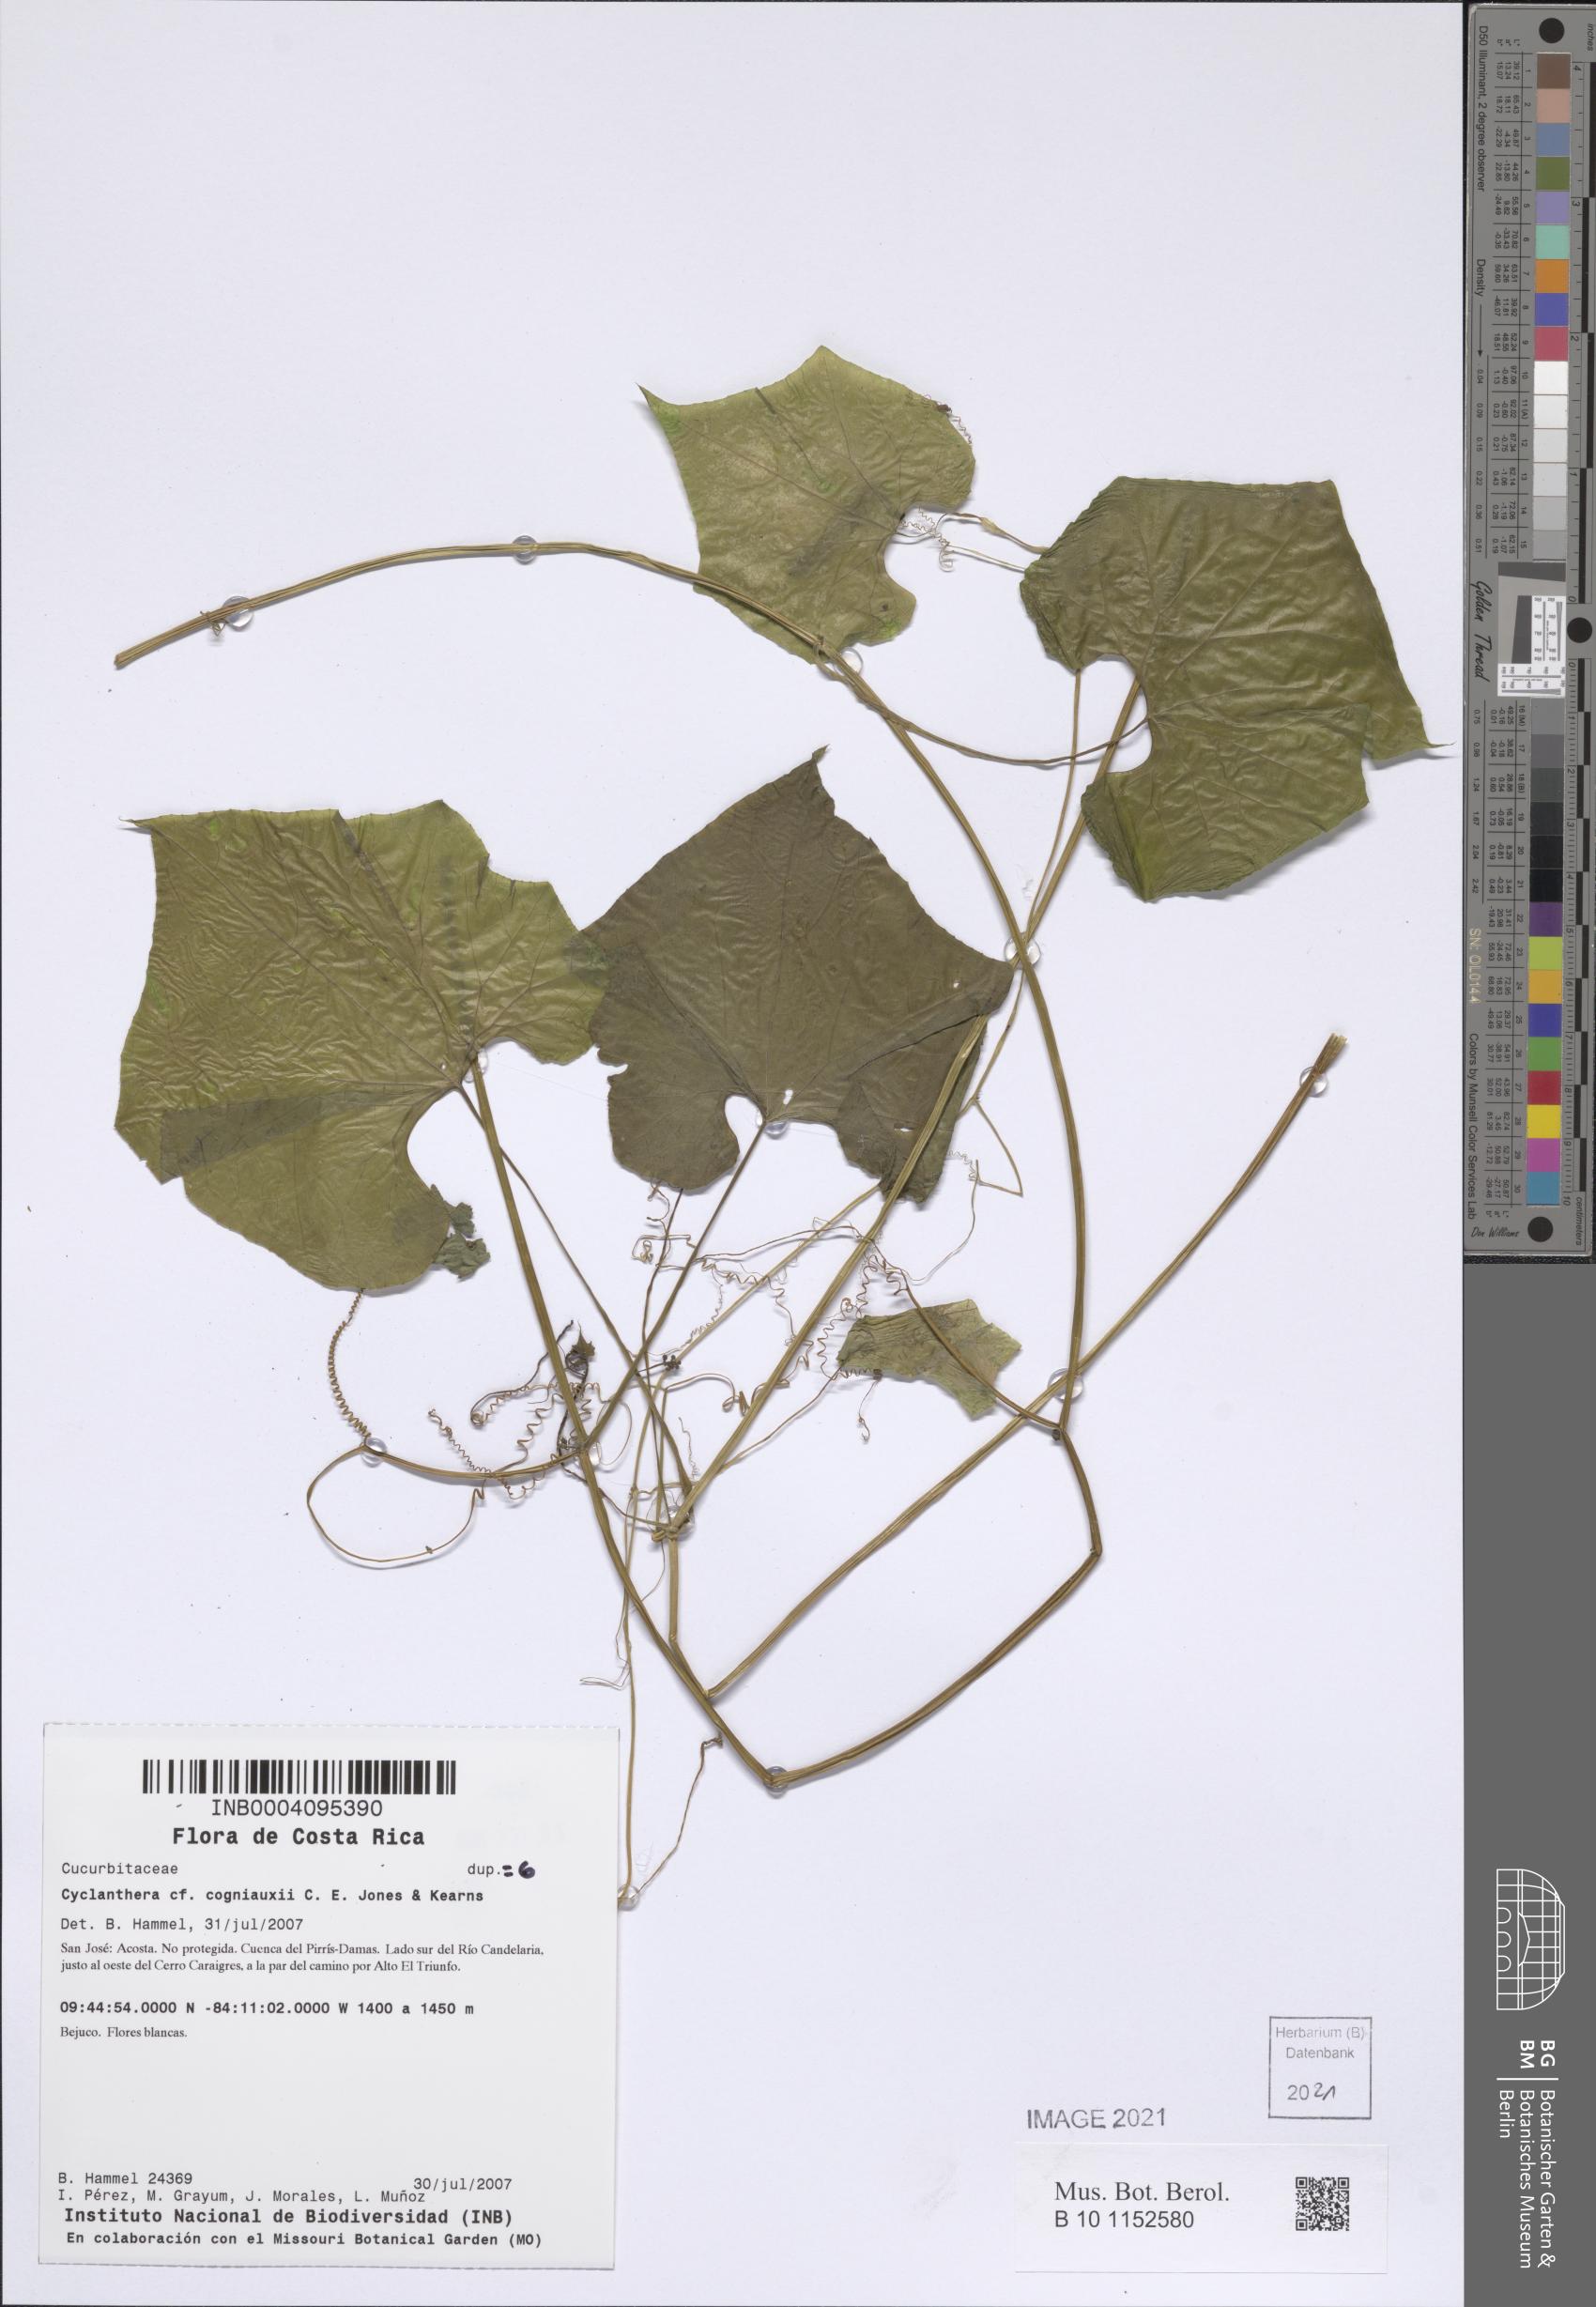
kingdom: Plantae
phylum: Tracheophyta
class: Magnoliopsida
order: Cucurbitales
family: Cucurbitaceae
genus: Cyclanthera
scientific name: Cyclanthera cogniauxii
